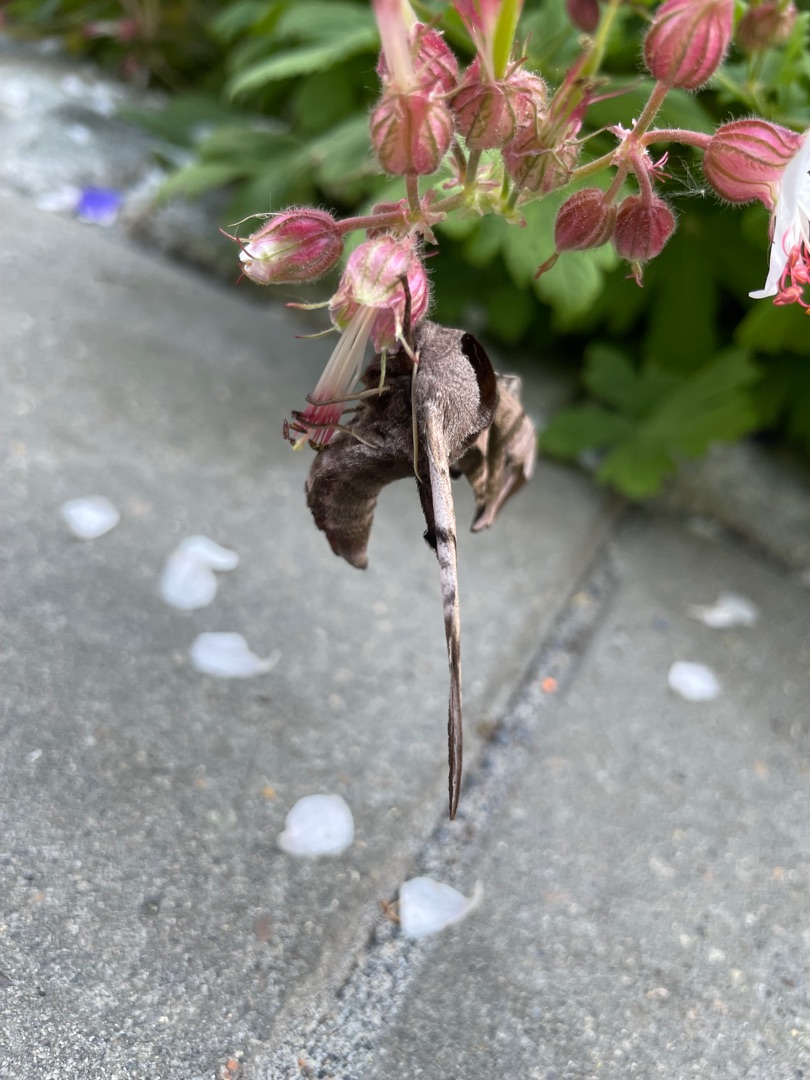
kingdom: Animalia
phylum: Arthropoda
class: Insecta
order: Lepidoptera
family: Sphingidae
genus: Smerinthus
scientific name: Smerinthus ocellata
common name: Aftenpåfugleøje
